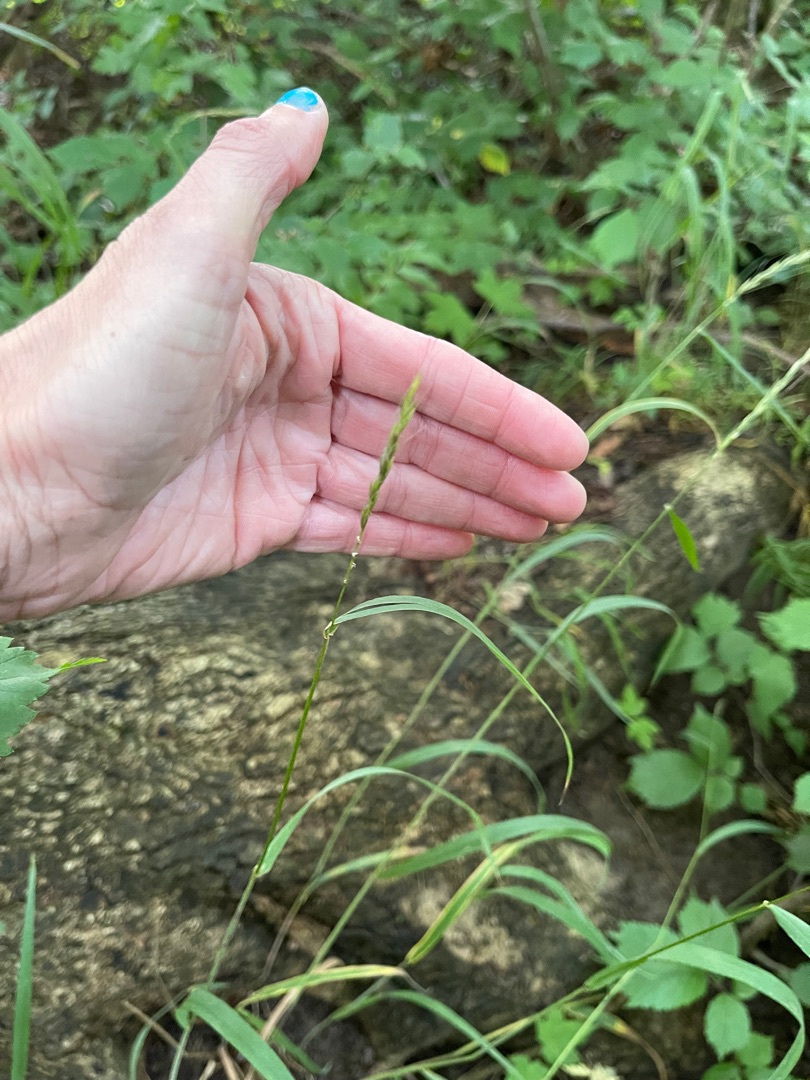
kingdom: Plantae
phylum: Tracheophyta
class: Liliopsida
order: Poales
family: Poaceae
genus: Elymus
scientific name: Elymus caninus
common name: Hundekvik
